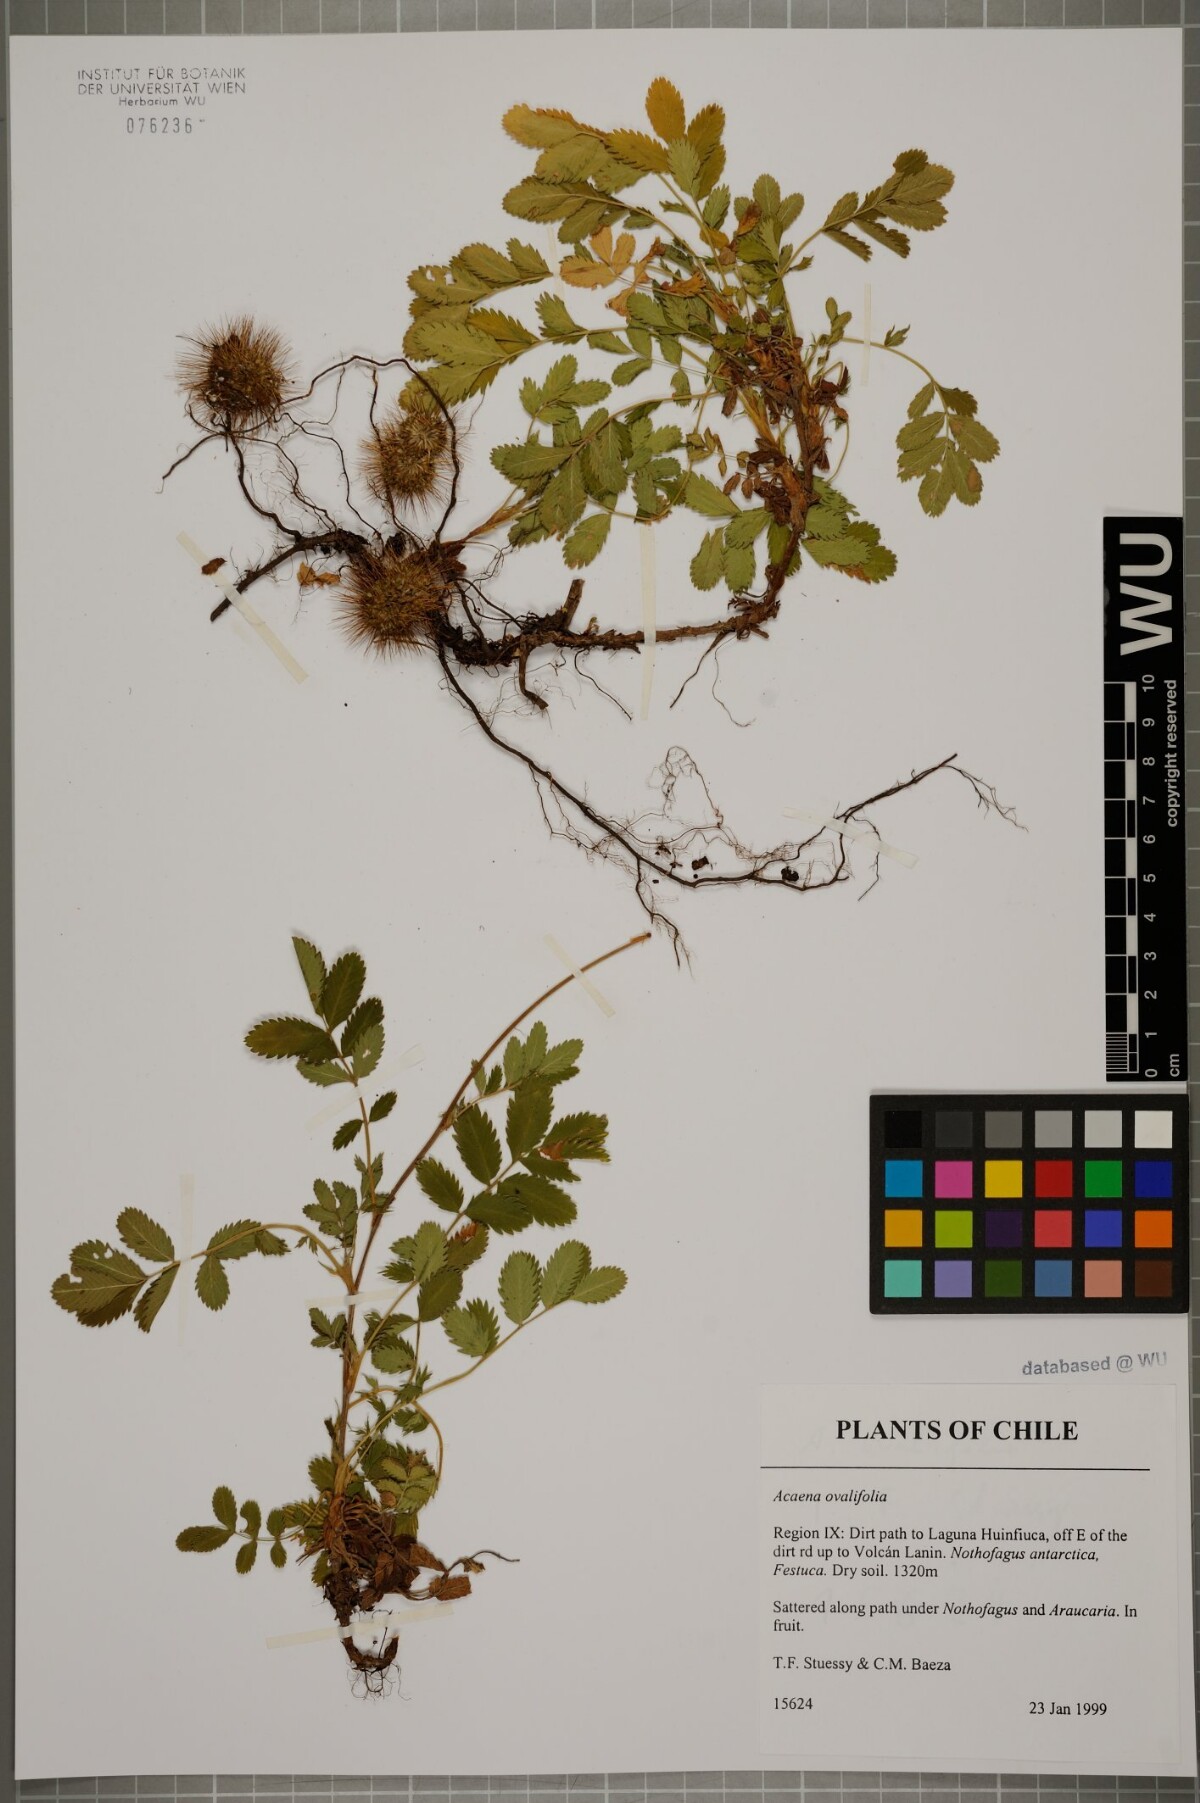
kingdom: Plantae
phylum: Tracheophyta
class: Magnoliopsida
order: Rosales
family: Rosaceae
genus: Acaena
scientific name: Acaena ovalifolia
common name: Two-spined acaena
